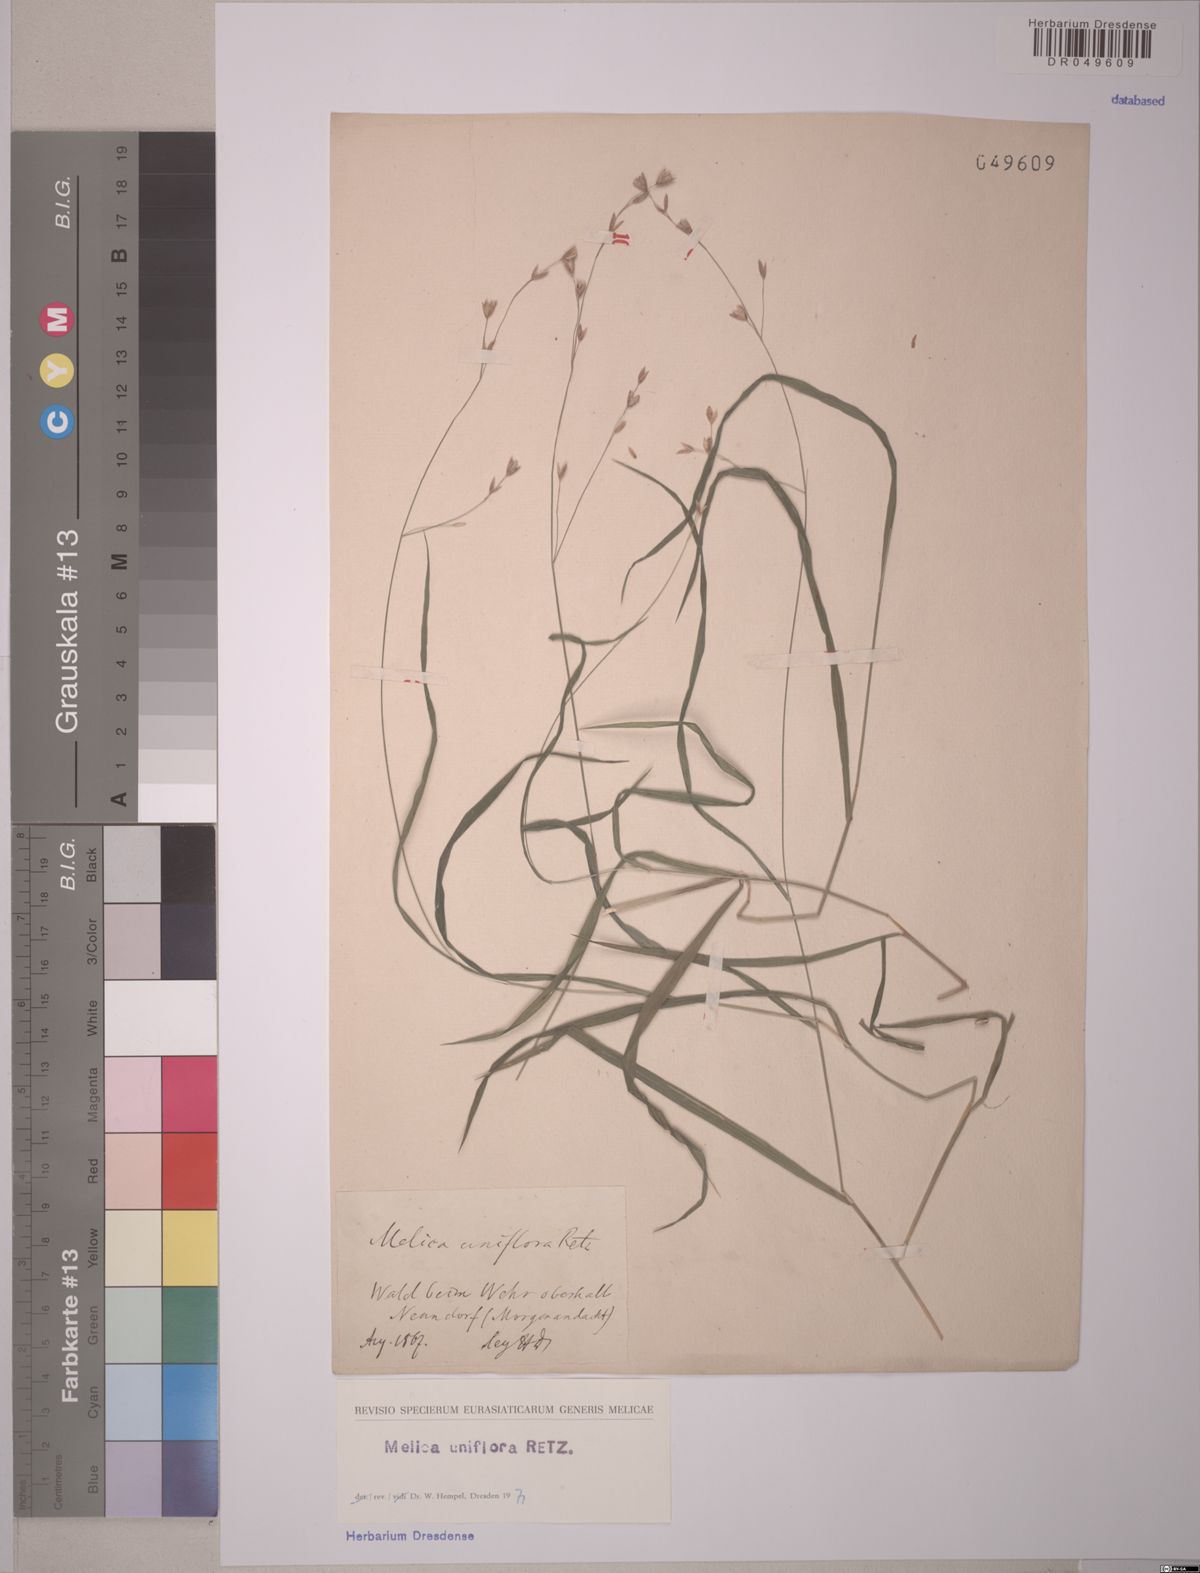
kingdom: Plantae
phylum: Tracheophyta
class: Liliopsida
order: Poales
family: Poaceae
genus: Melica
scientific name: Melica uniflora
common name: Wood melick
